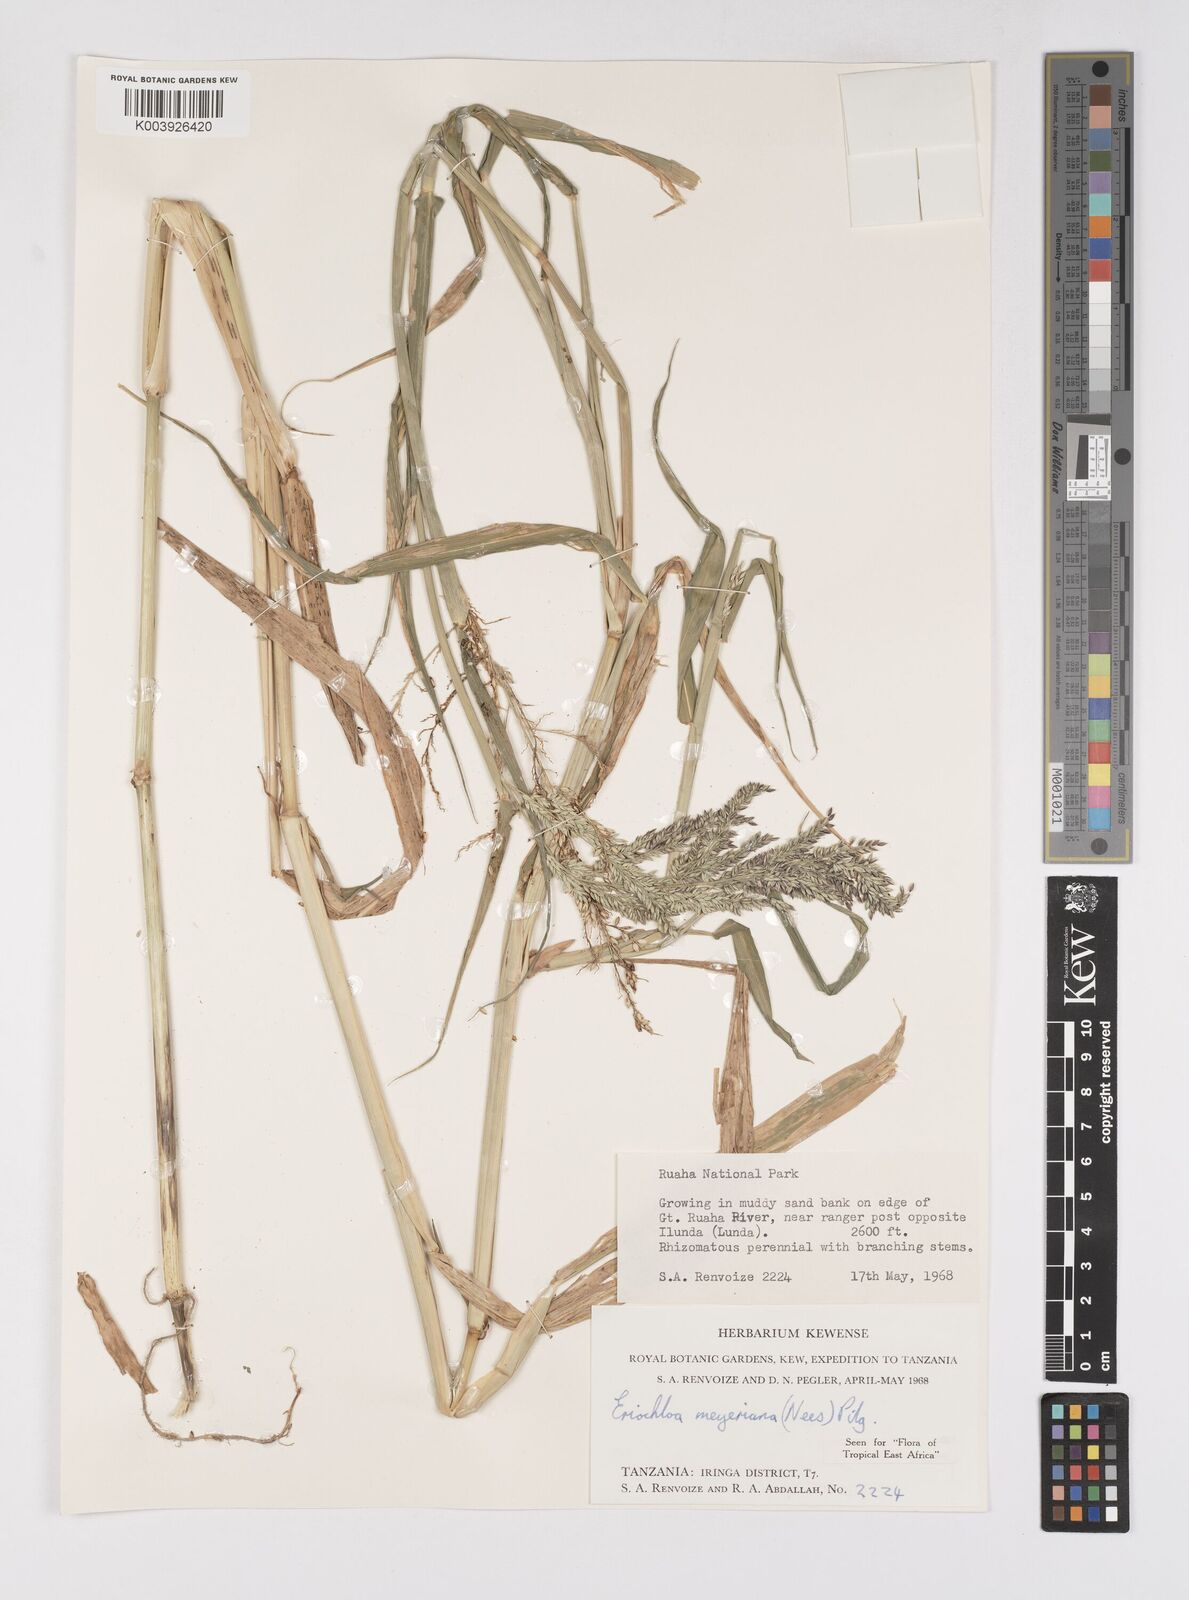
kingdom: Plantae
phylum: Tracheophyta
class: Liliopsida
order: Poales
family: Poaceae
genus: Eriochloa
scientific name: Eriochloa meyeriana
